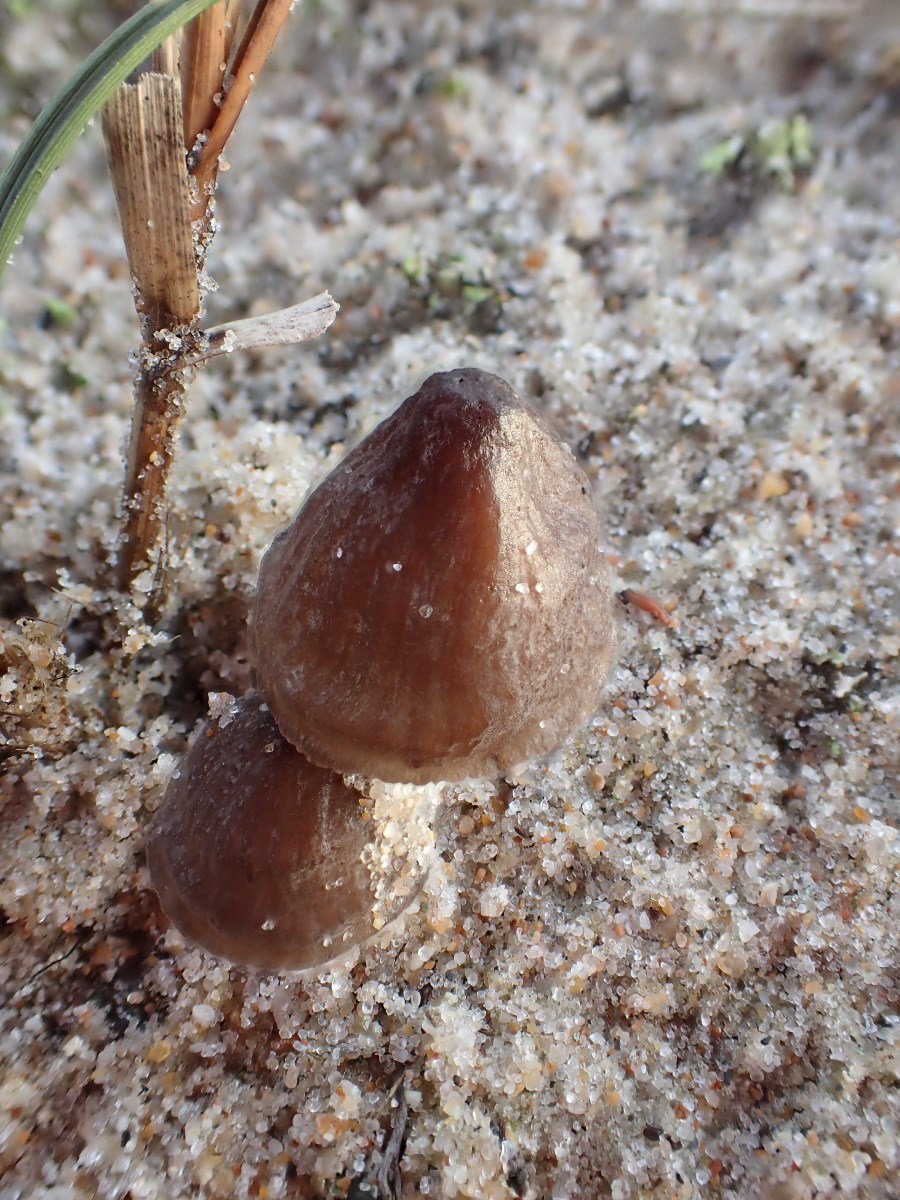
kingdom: Fungi
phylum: Basidiomycota
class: Agaricomycetes
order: Agaricales
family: Mycenaceae
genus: Mycena
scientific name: Mycena
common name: huesvamp
